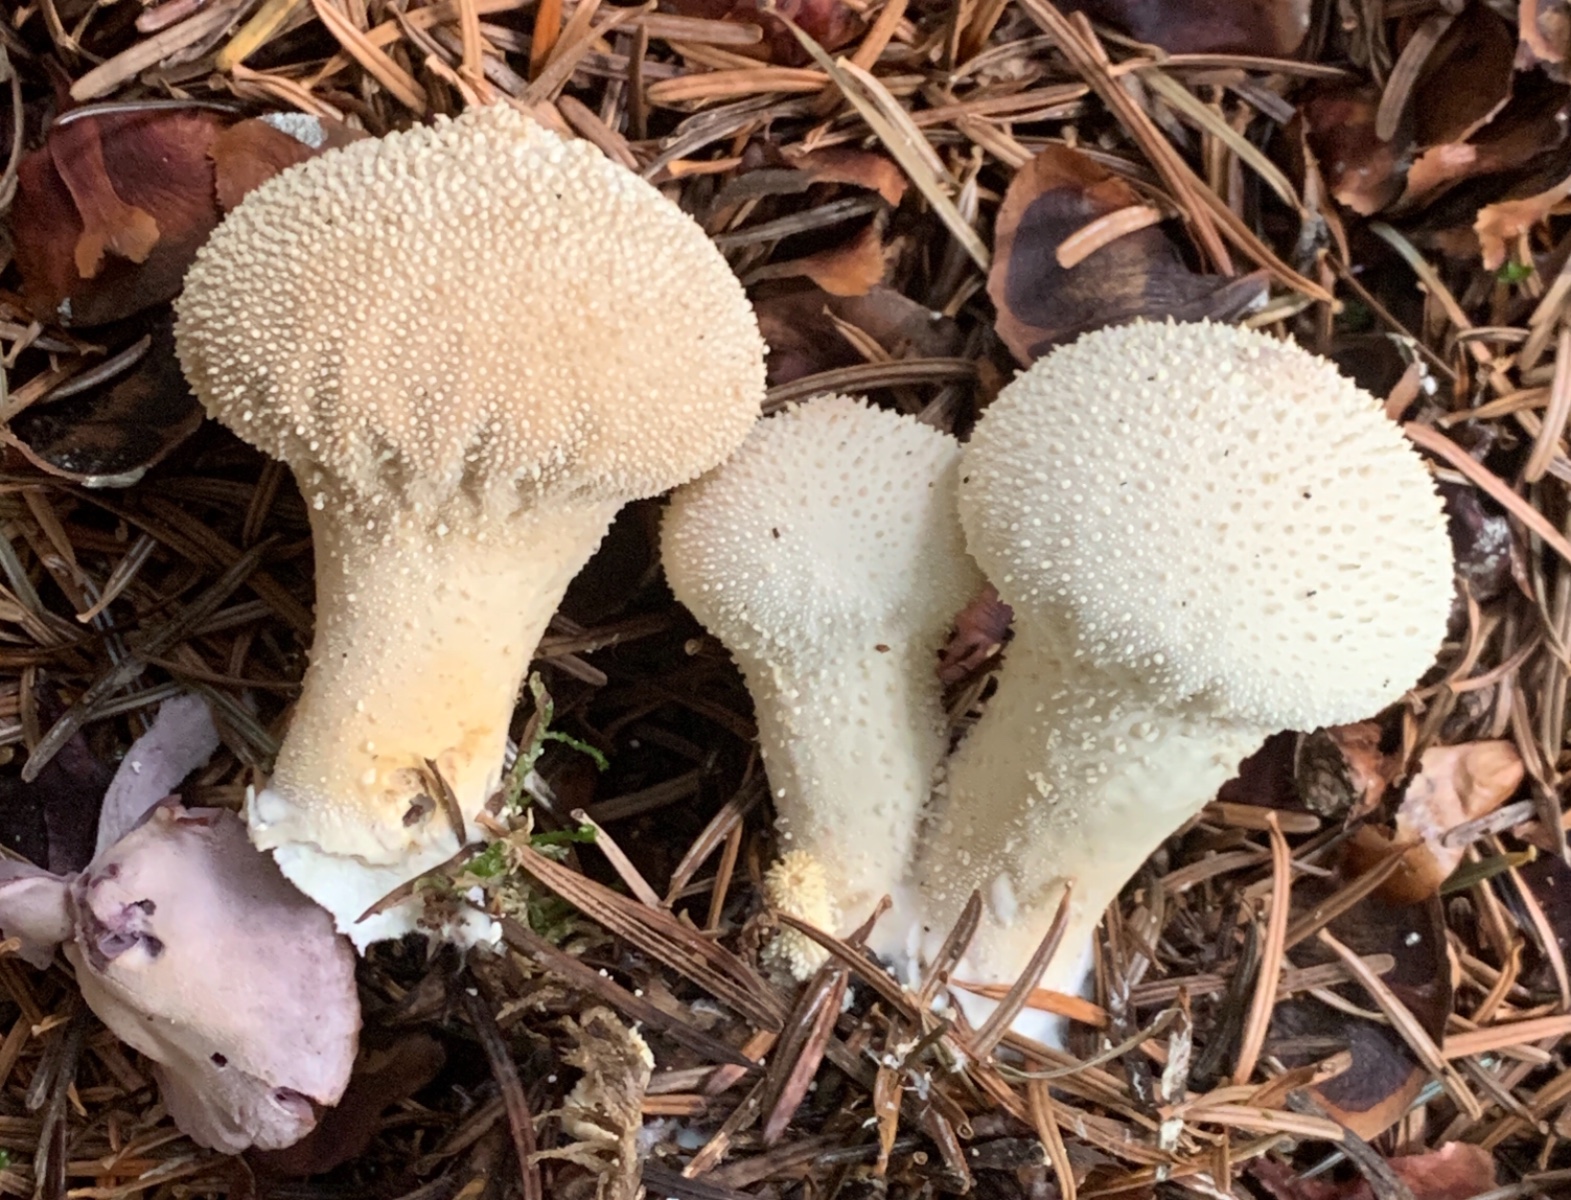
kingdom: Fungi
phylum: Basidiomycota
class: Agaricomycetes
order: Agaricales
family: Lycoperdaceae
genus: Lycoperdon
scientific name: Lycoperdon perlatum
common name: krystal-støvbold
